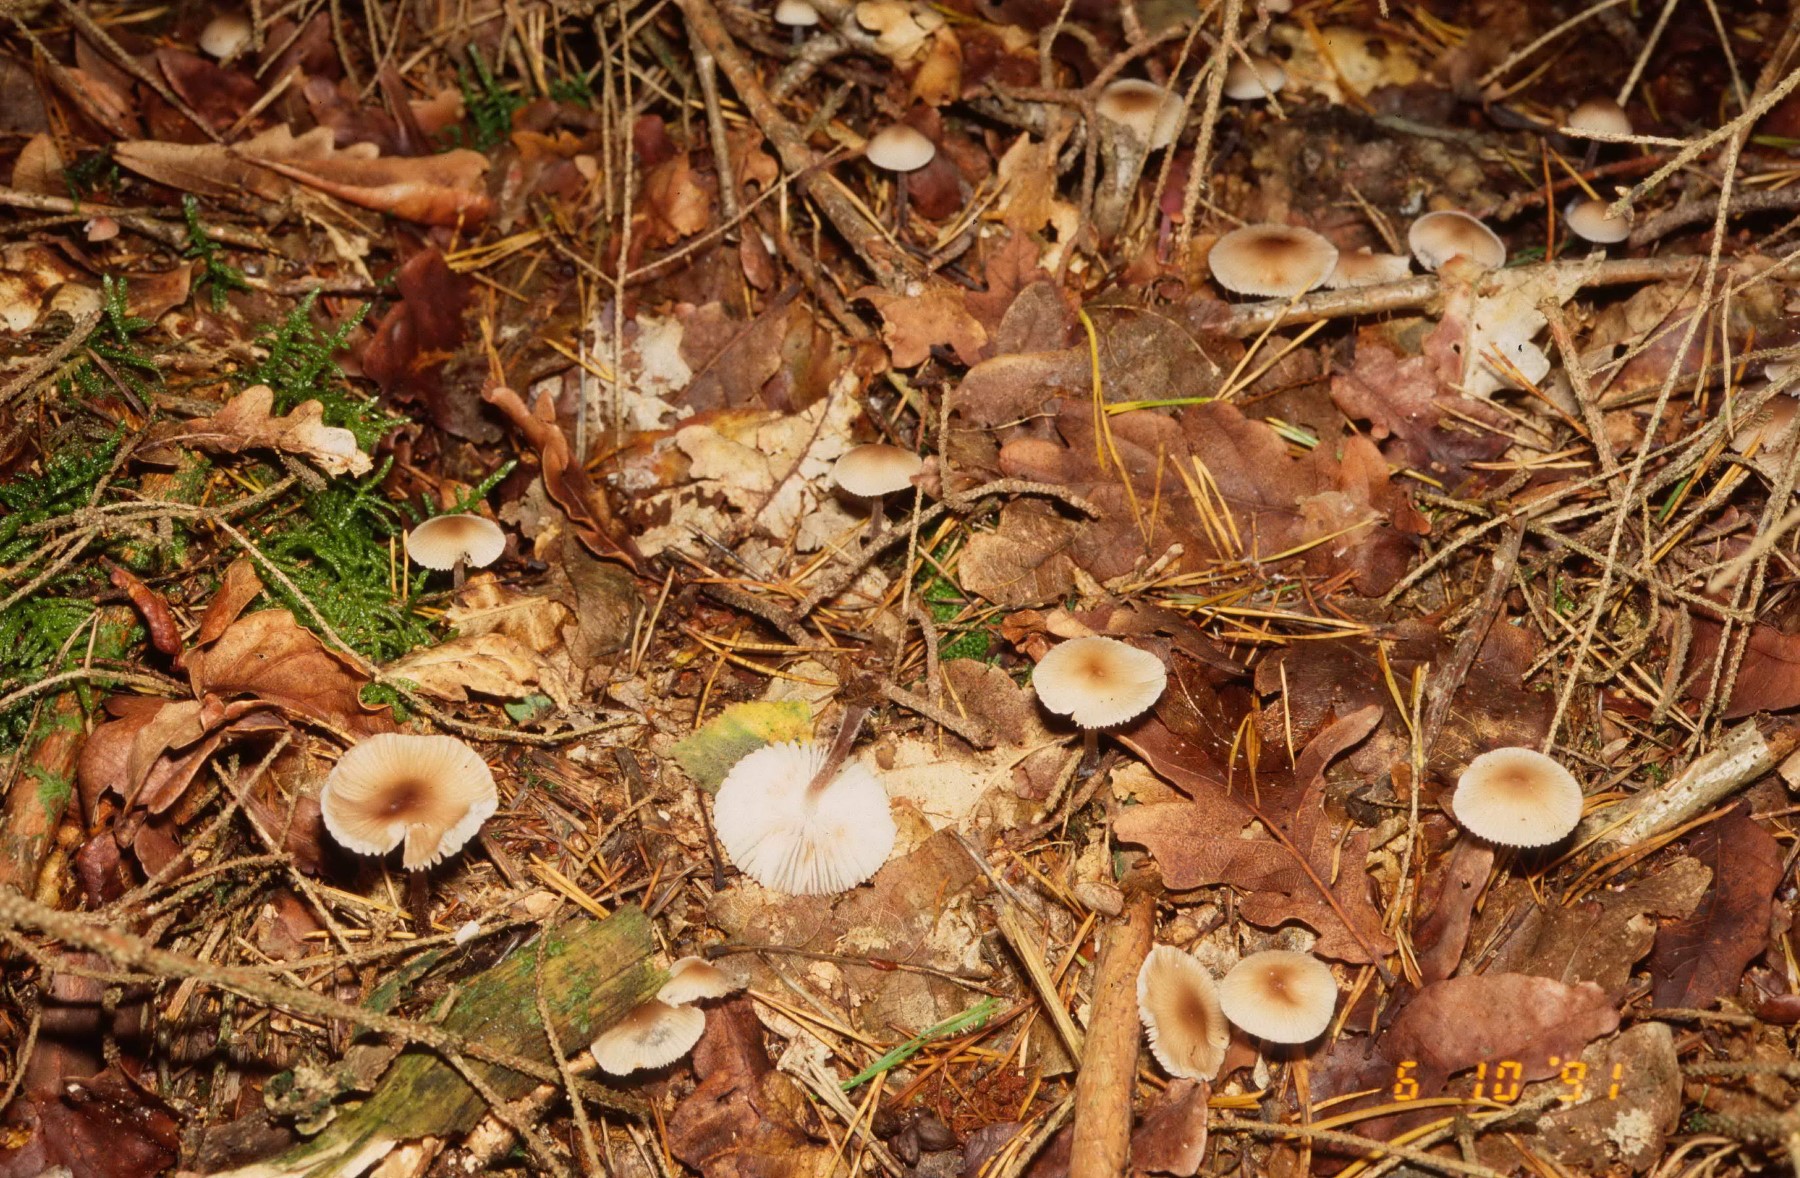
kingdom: Fungi
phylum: Basidiomycota
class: Agaricomycetes
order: Agaricales
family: Mycenaceae
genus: Mycena
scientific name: Mycena zephirus
